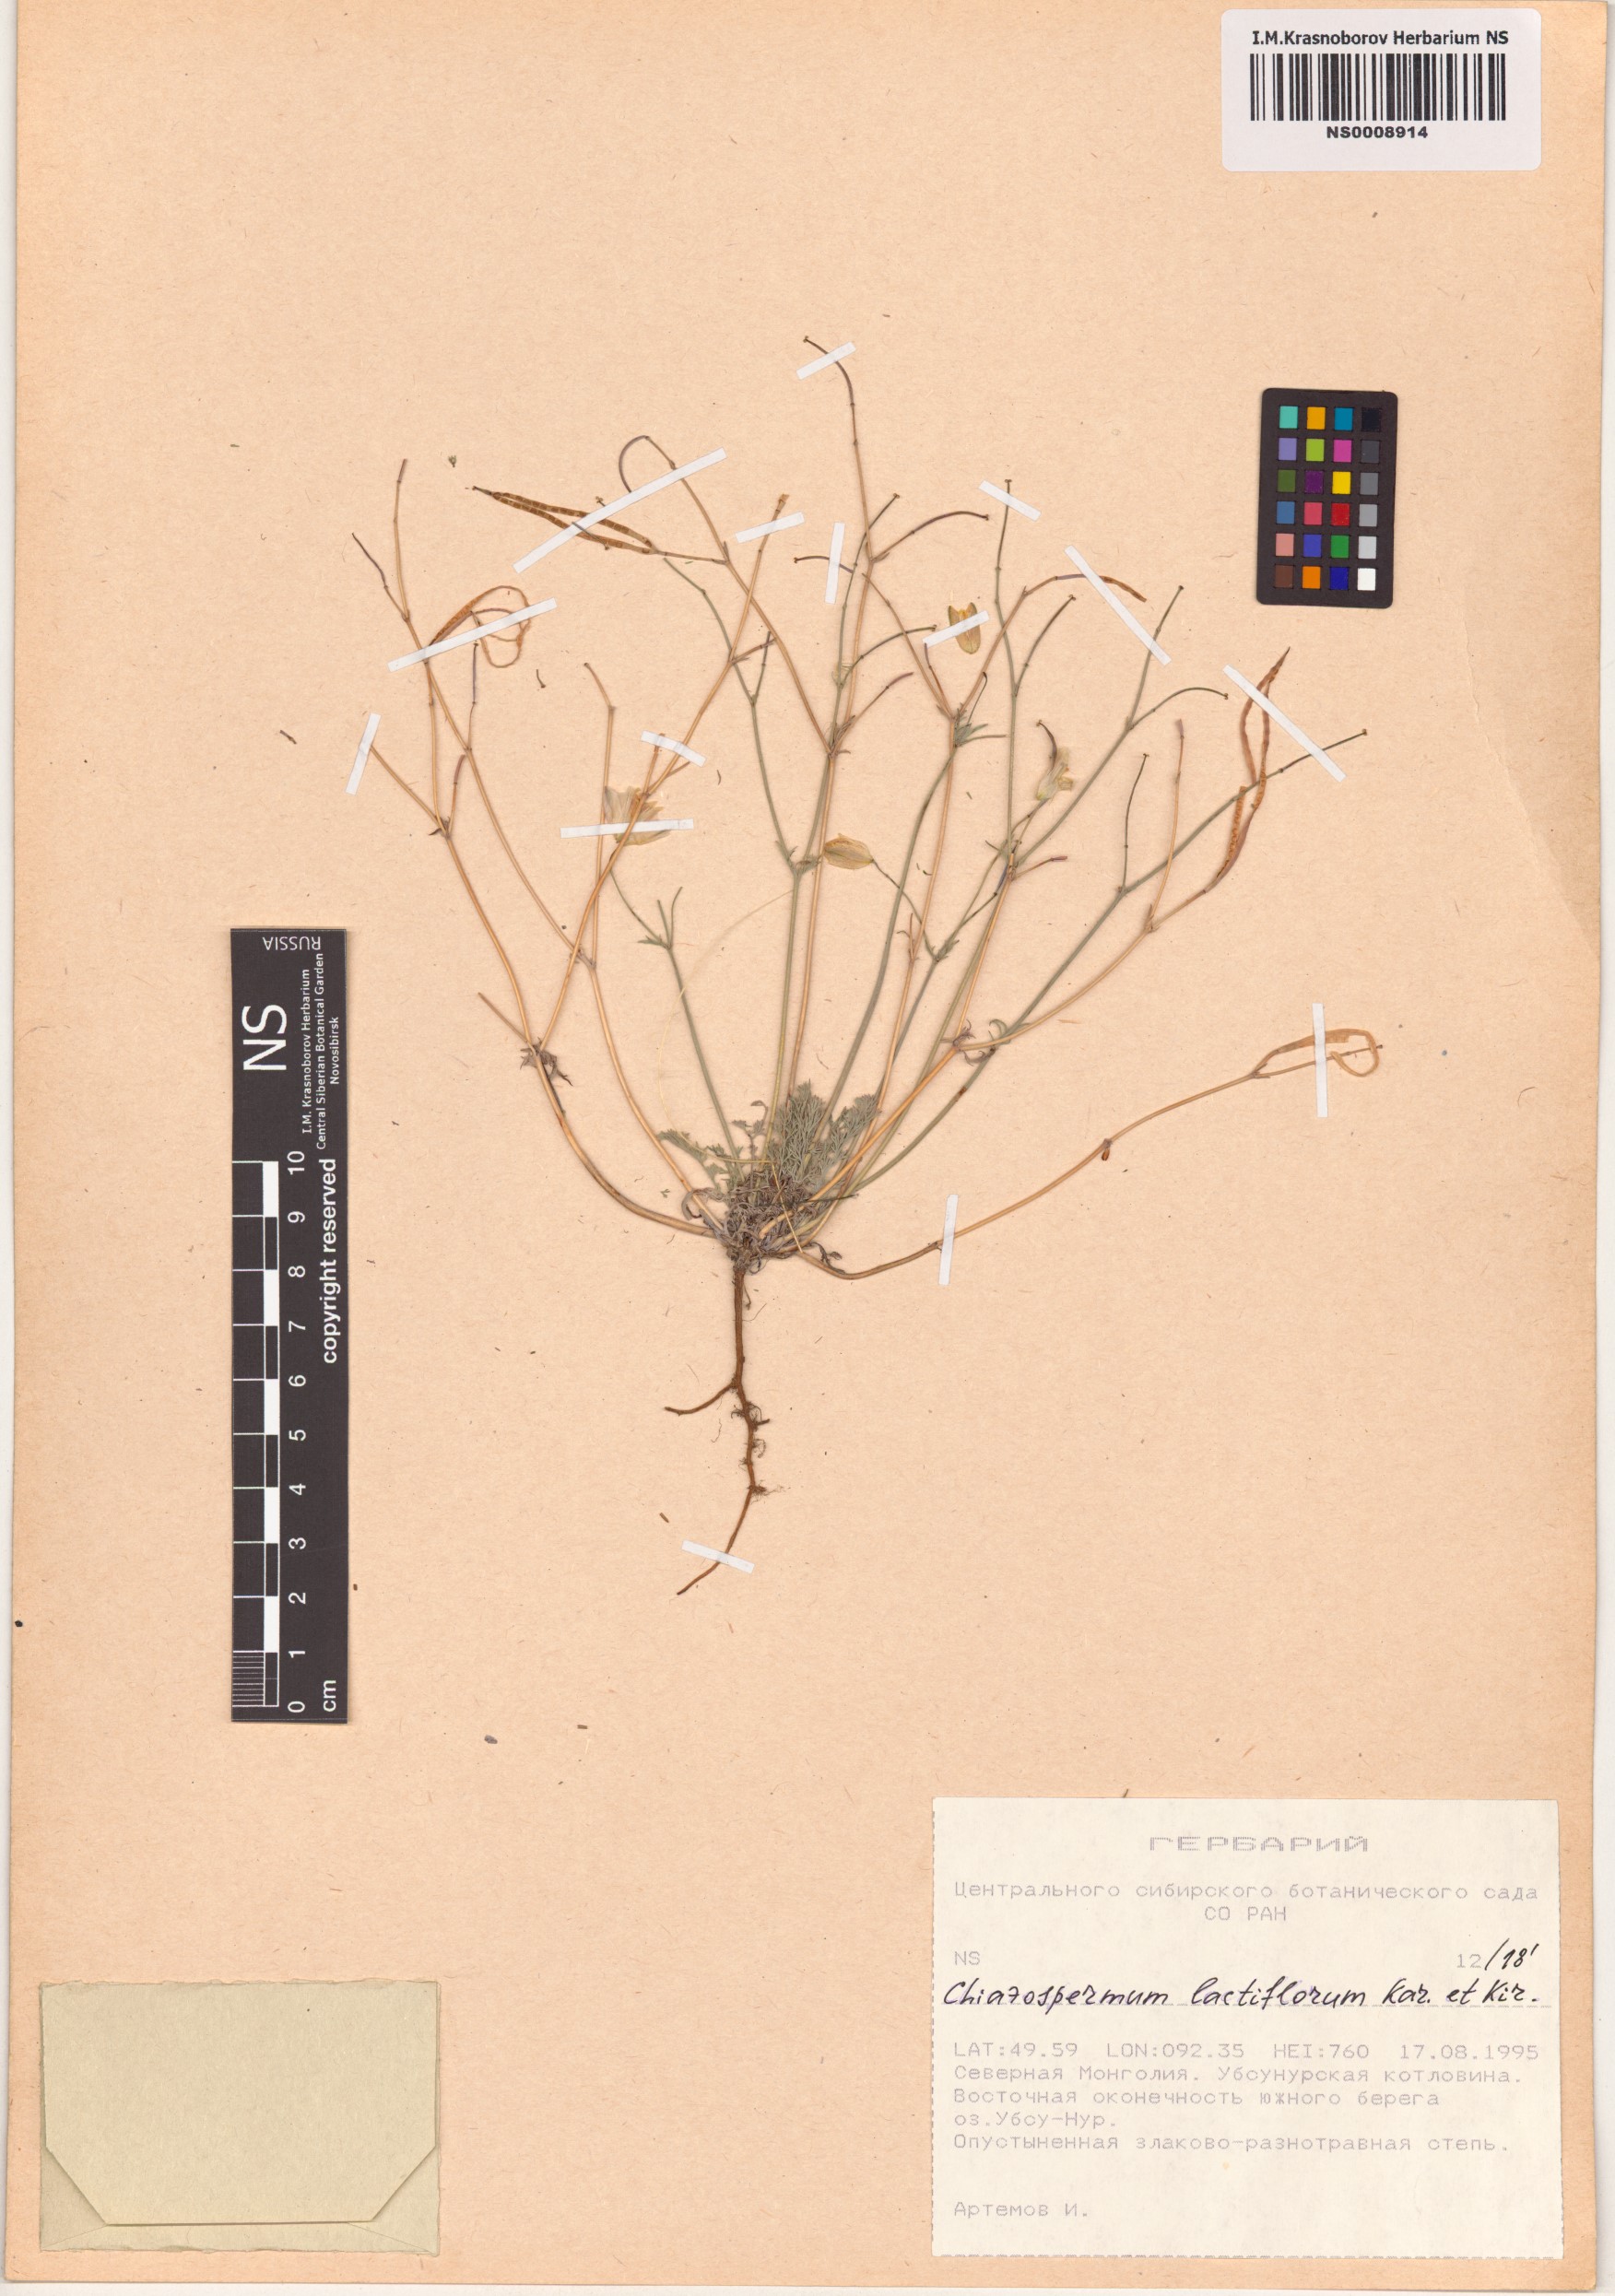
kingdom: Plantae
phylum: Tracheophyta
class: Magnoliopsida
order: Ranunculales
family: Papaveraceae
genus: Hypecoum
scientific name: Hypecoum lactiflorum
